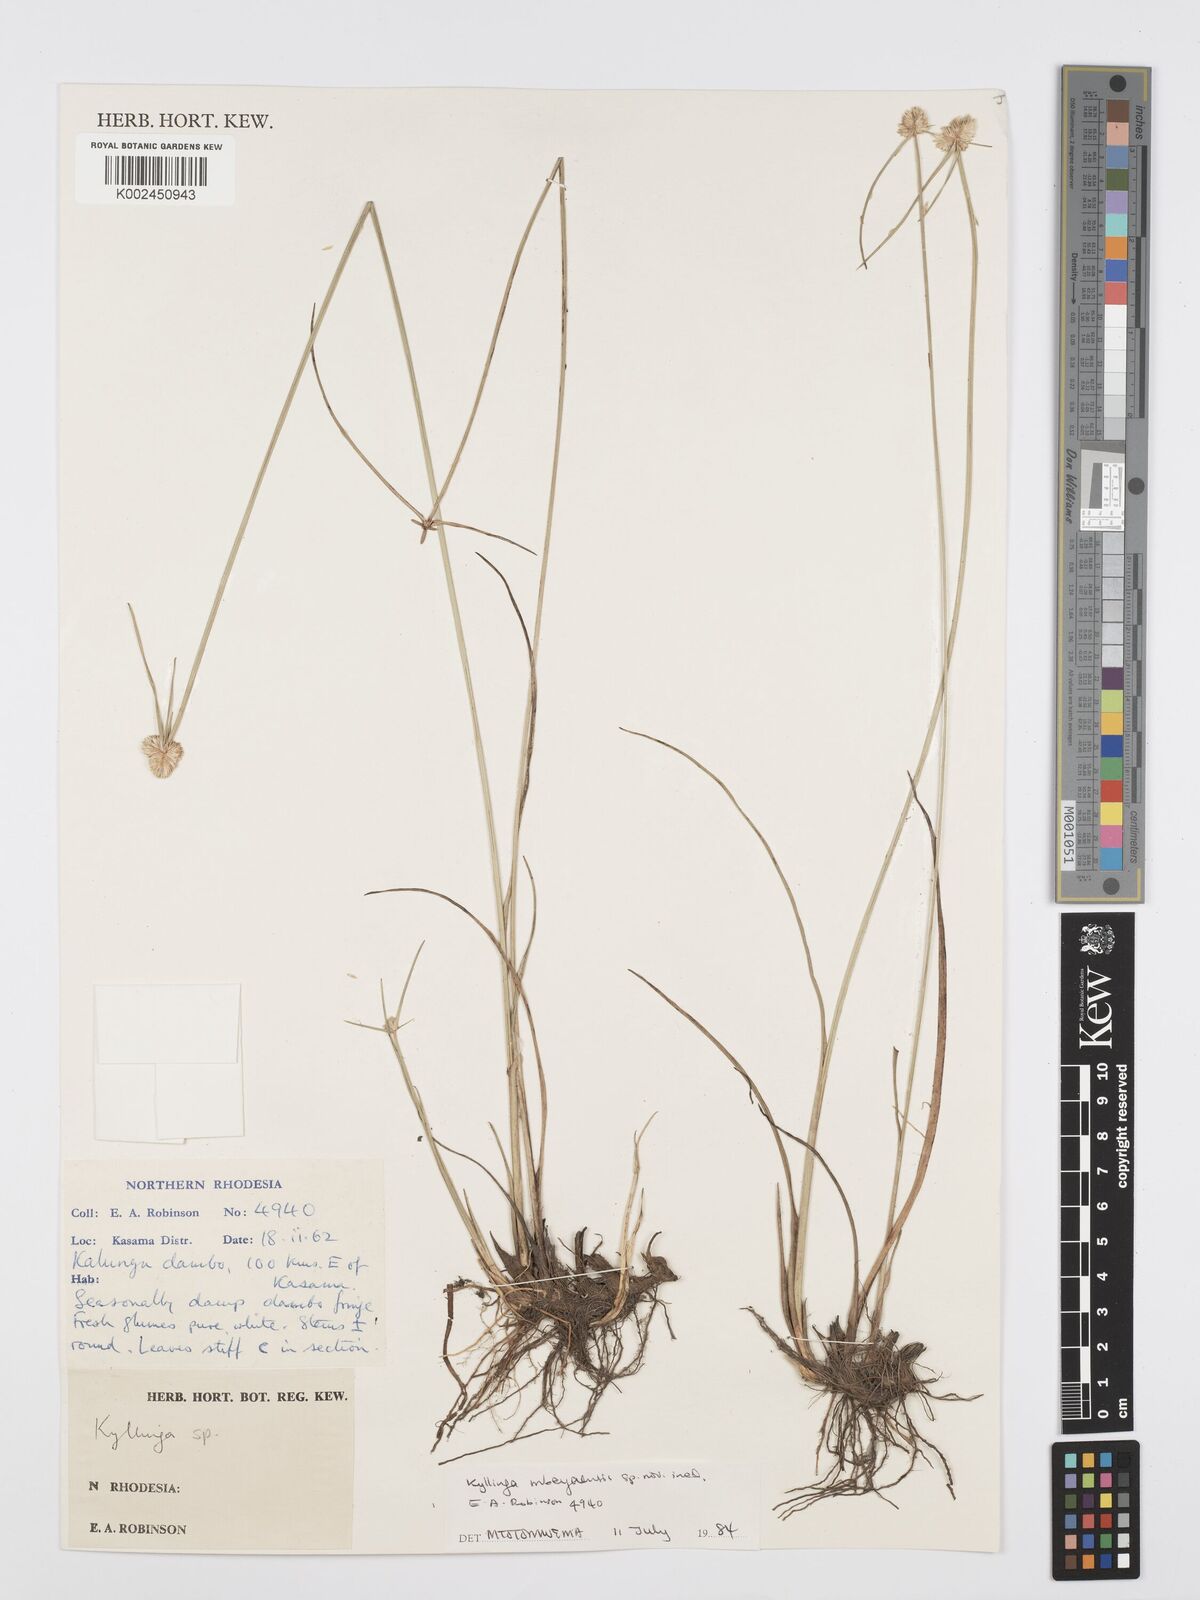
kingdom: Plantae
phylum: Tracheophyta
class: Liliopsida
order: Poales
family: Cyperaceae
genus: Cyperus
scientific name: Cyperus
